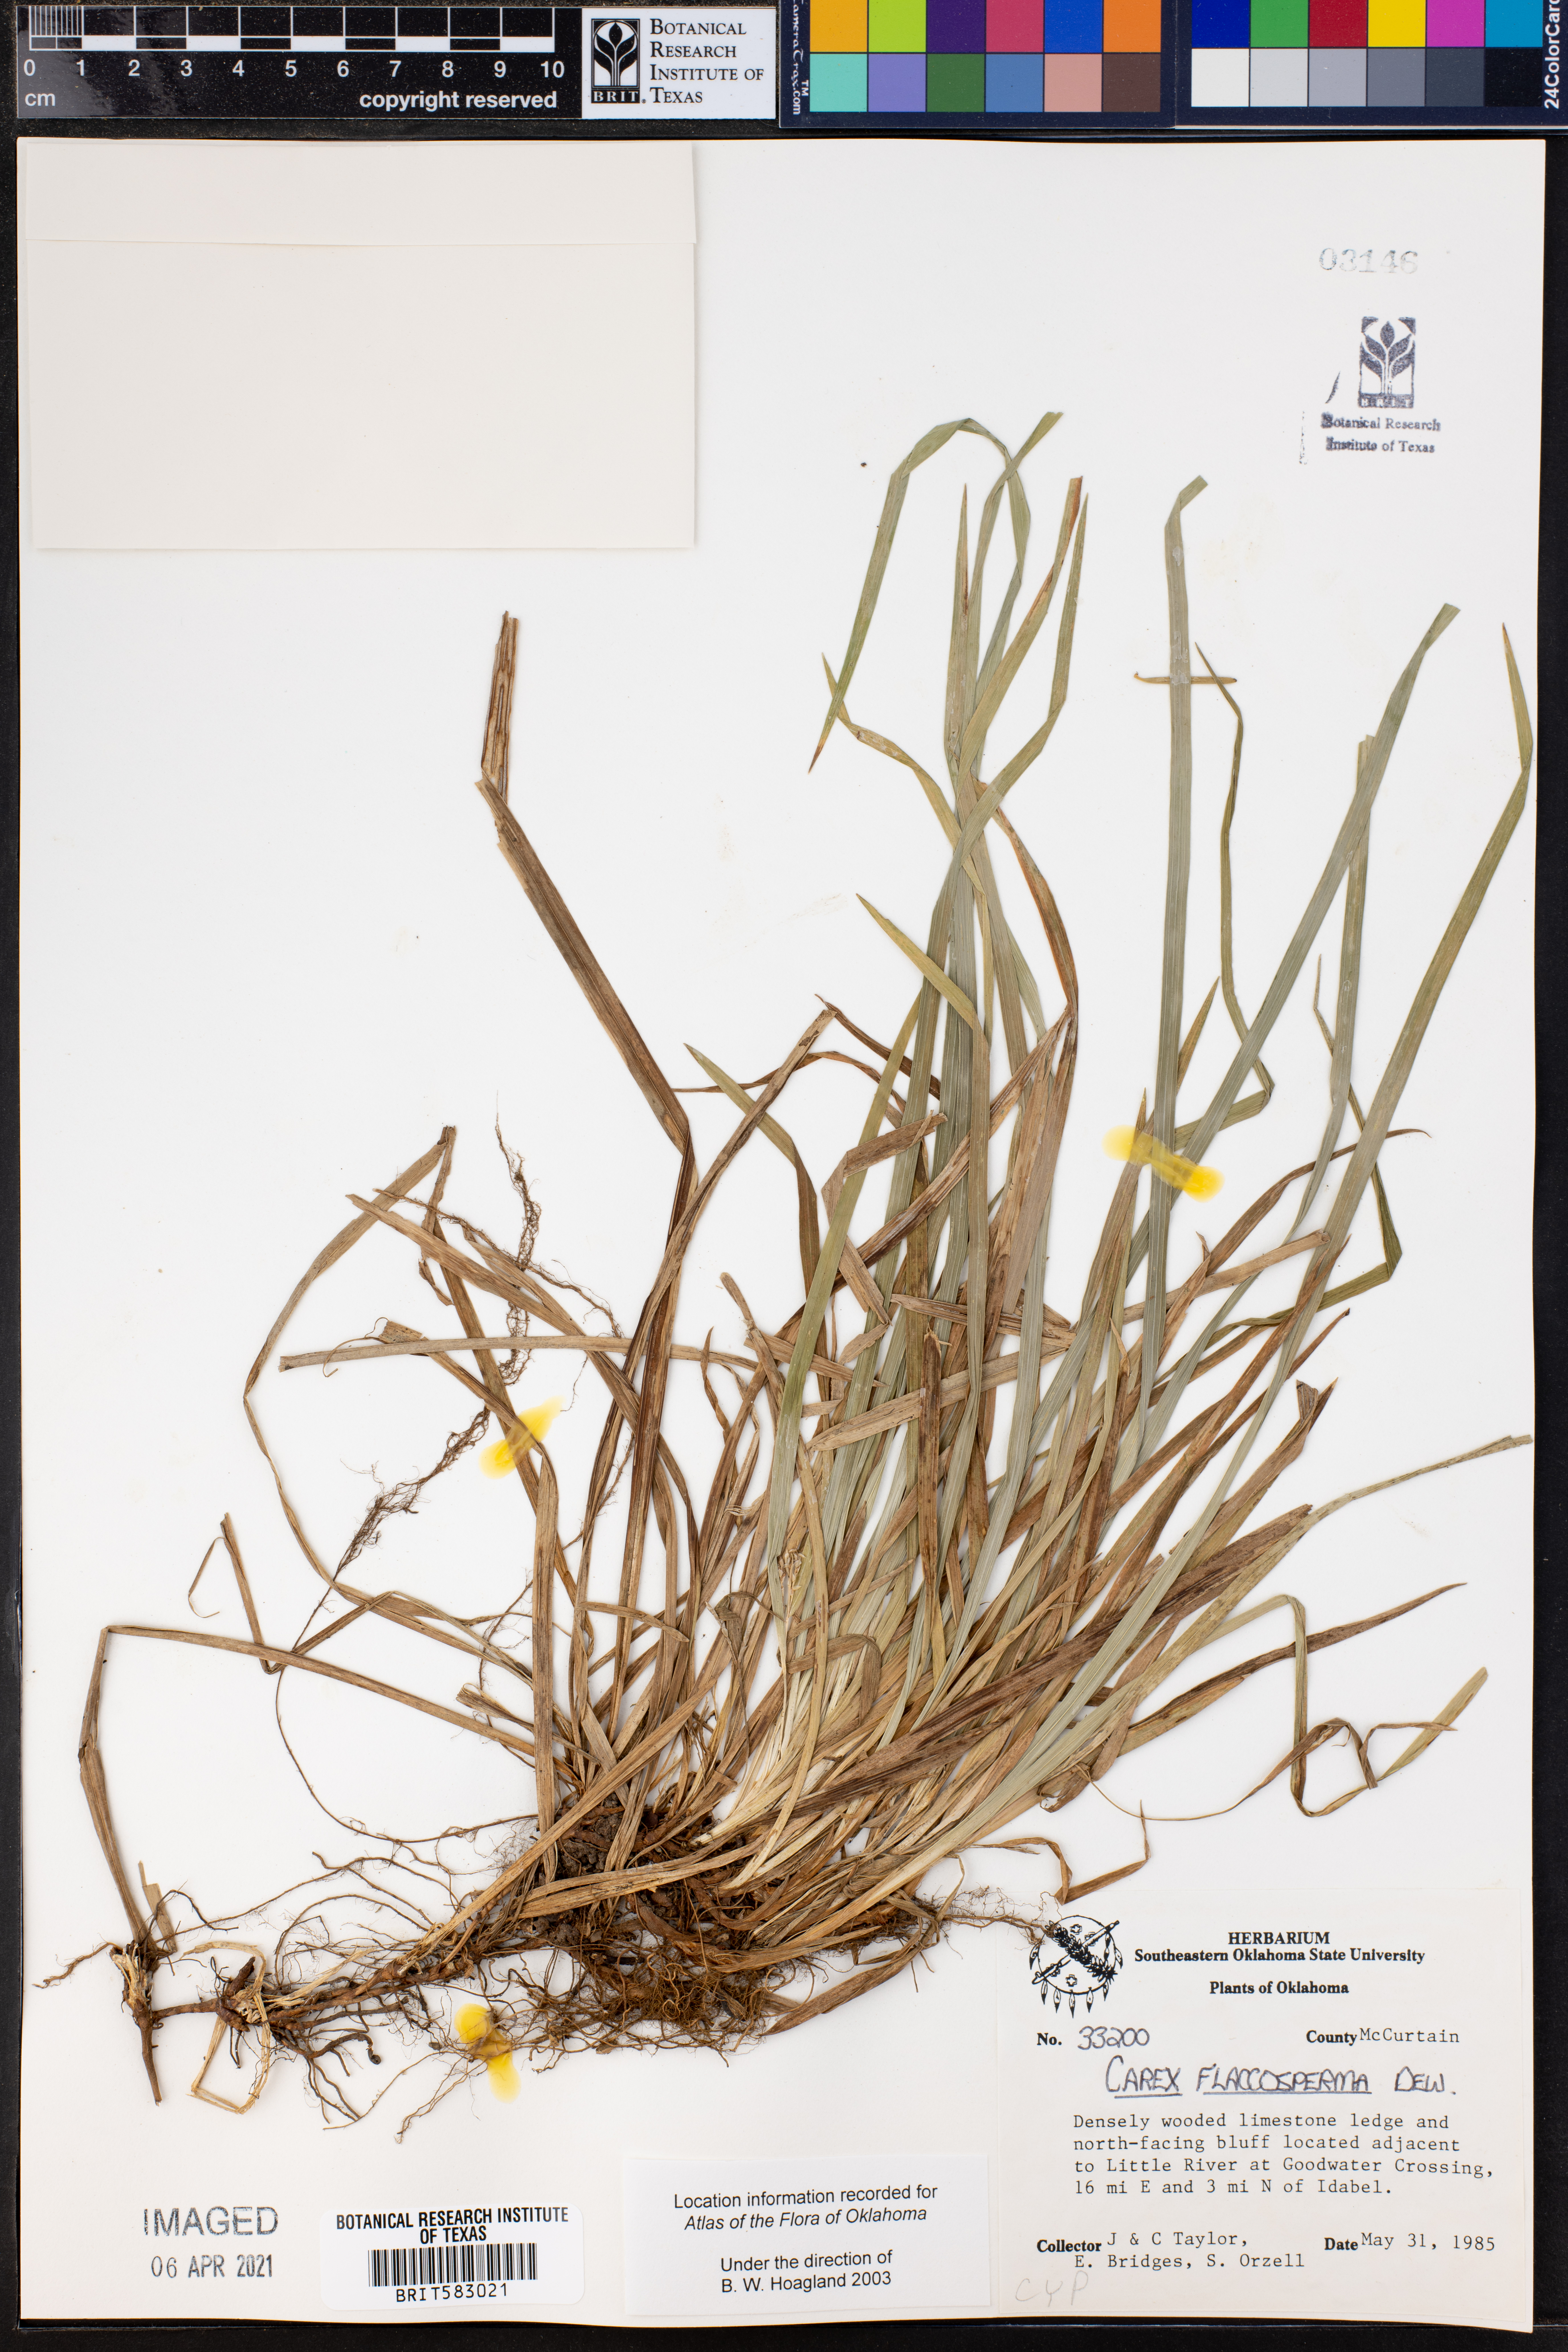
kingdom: Plantae
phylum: Tracheophyta
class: Liliopsida
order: Poales
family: Cyperaceae
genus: Carex
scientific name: Carex flaccosperma
